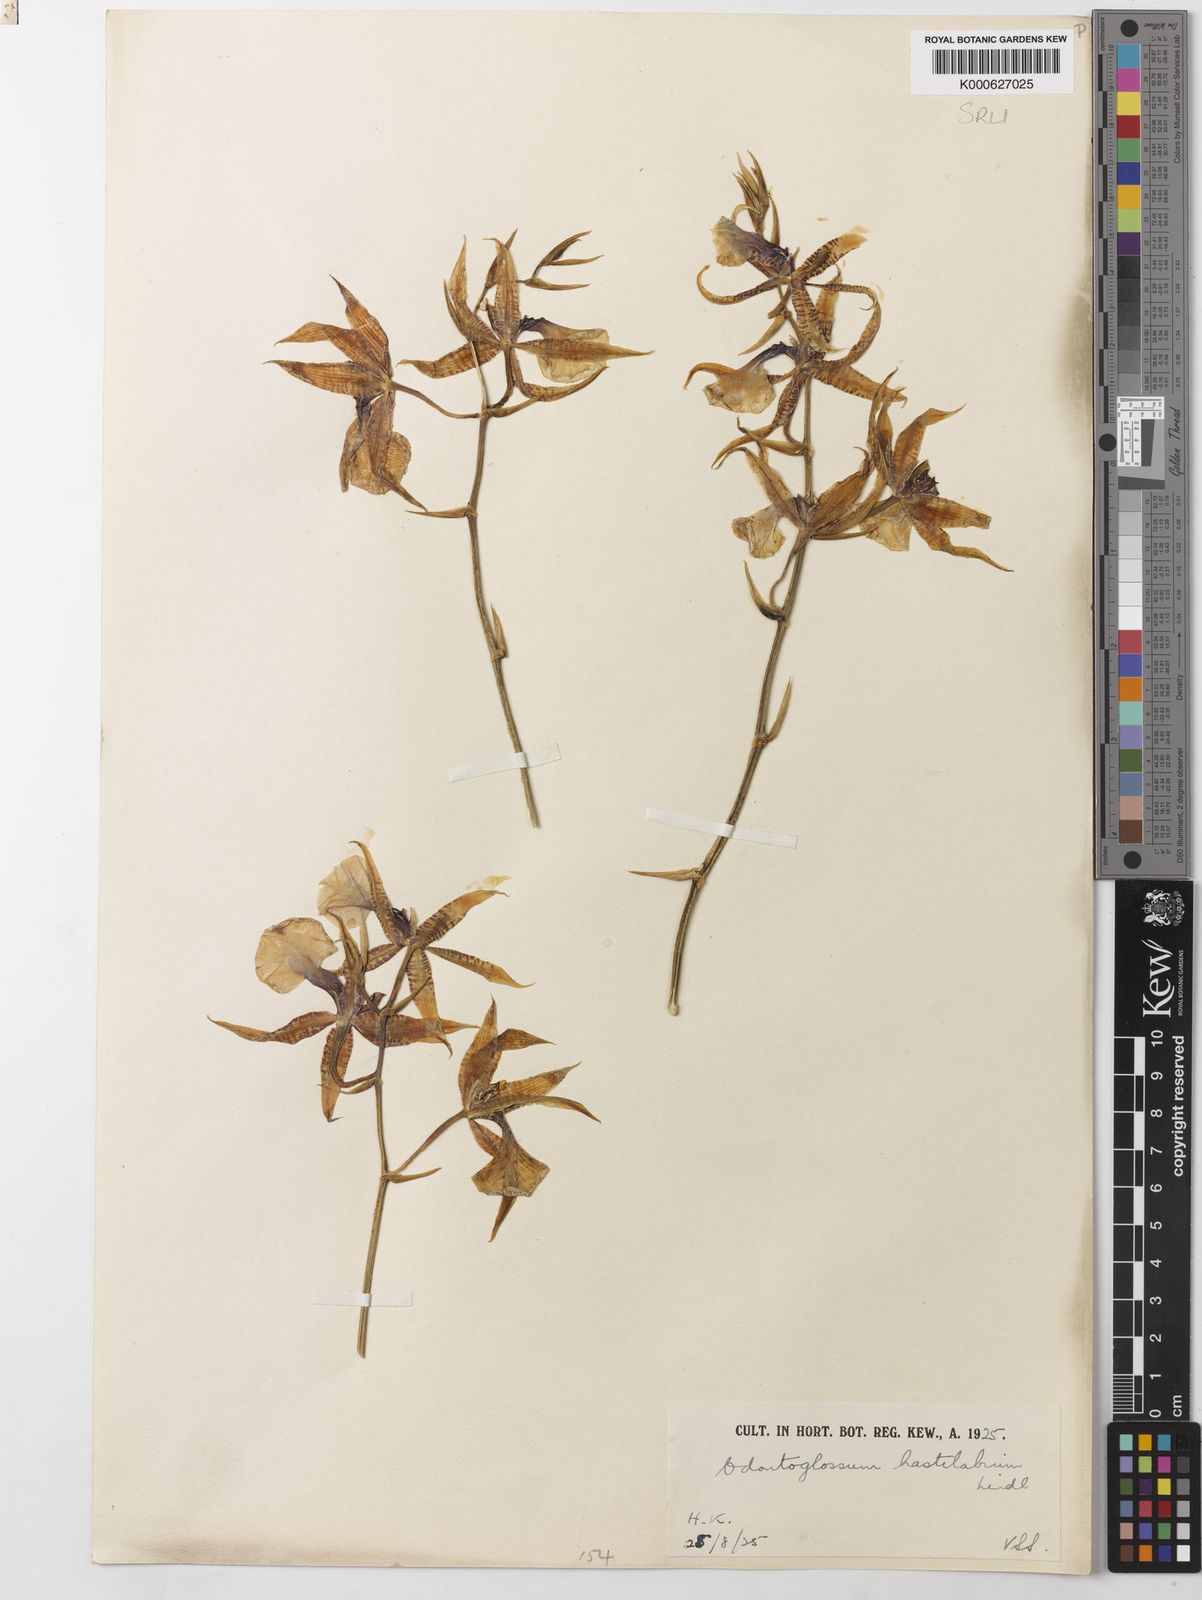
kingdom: Plantae
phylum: Tracheophyta
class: Liliopsida
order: Asparagales
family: Orchidaceae
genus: Oncidium
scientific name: Oncidium hastilabium
